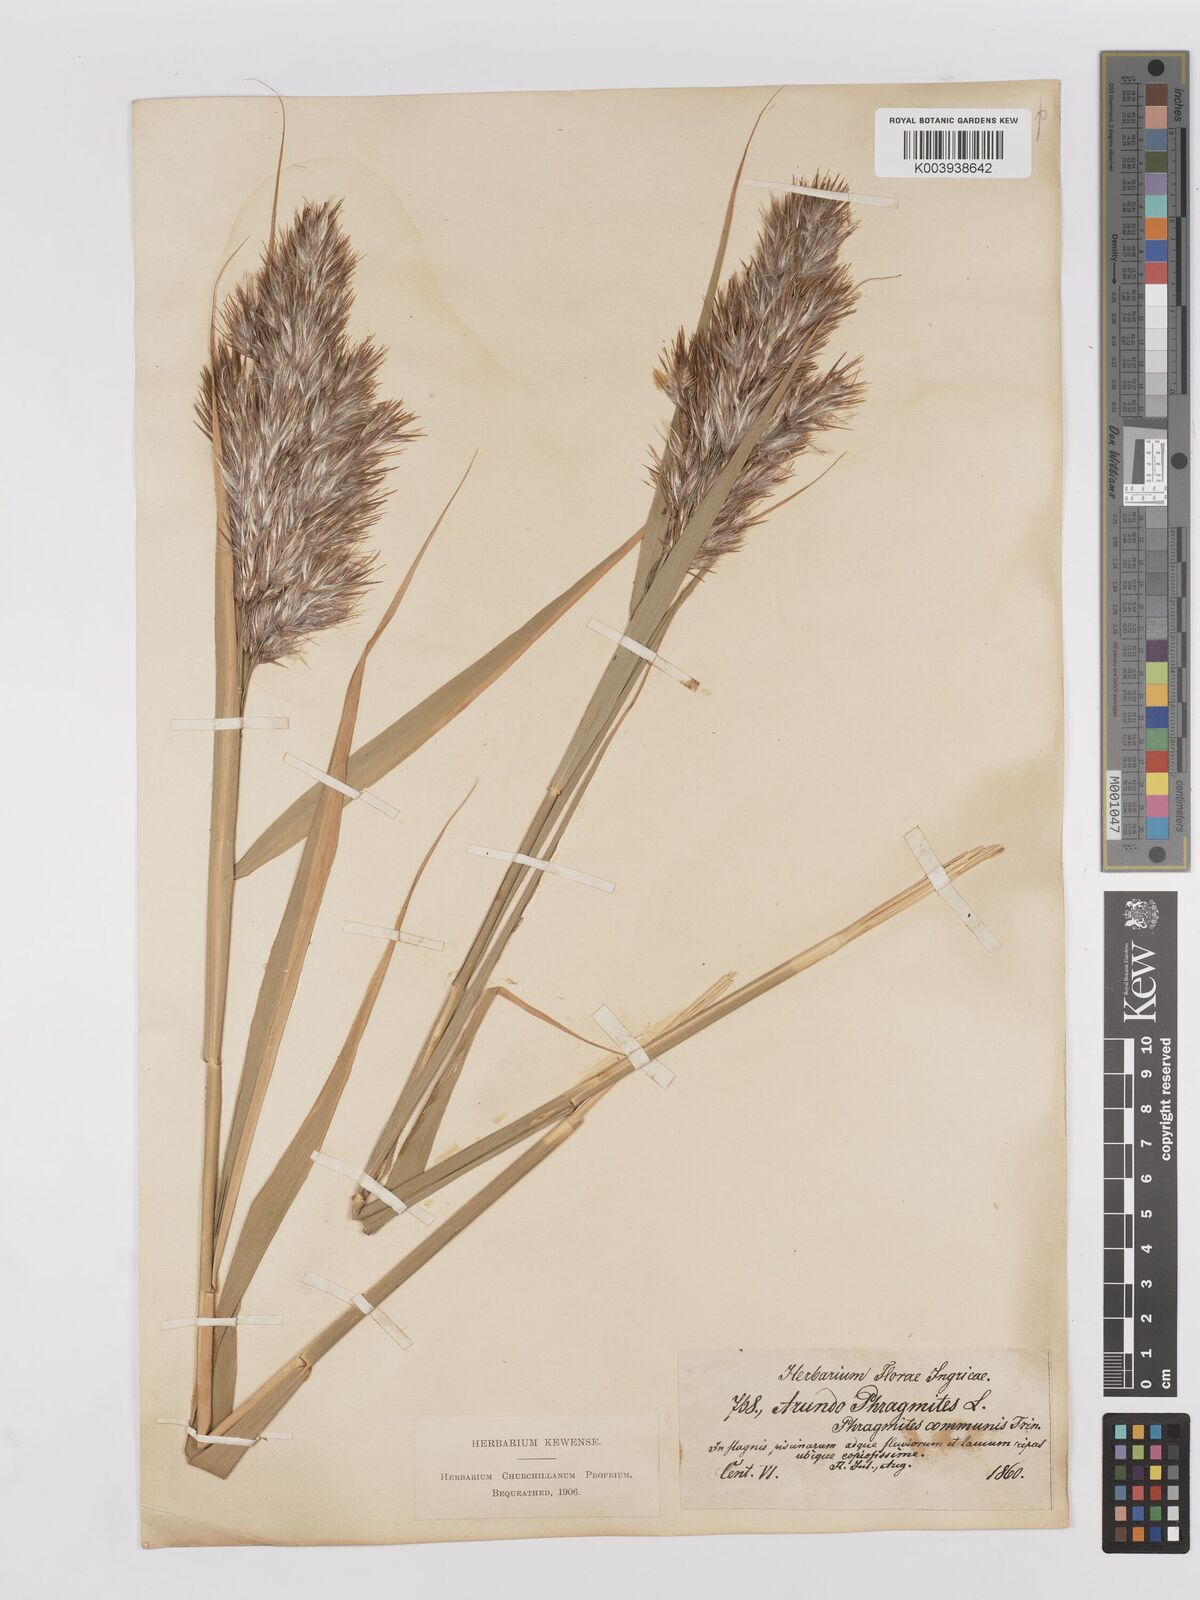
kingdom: Plantae
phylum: Tracheophyta
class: Liliopsida
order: Poales
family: Poaceae
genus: Phragmites
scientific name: Phragmites australis
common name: Common reed
